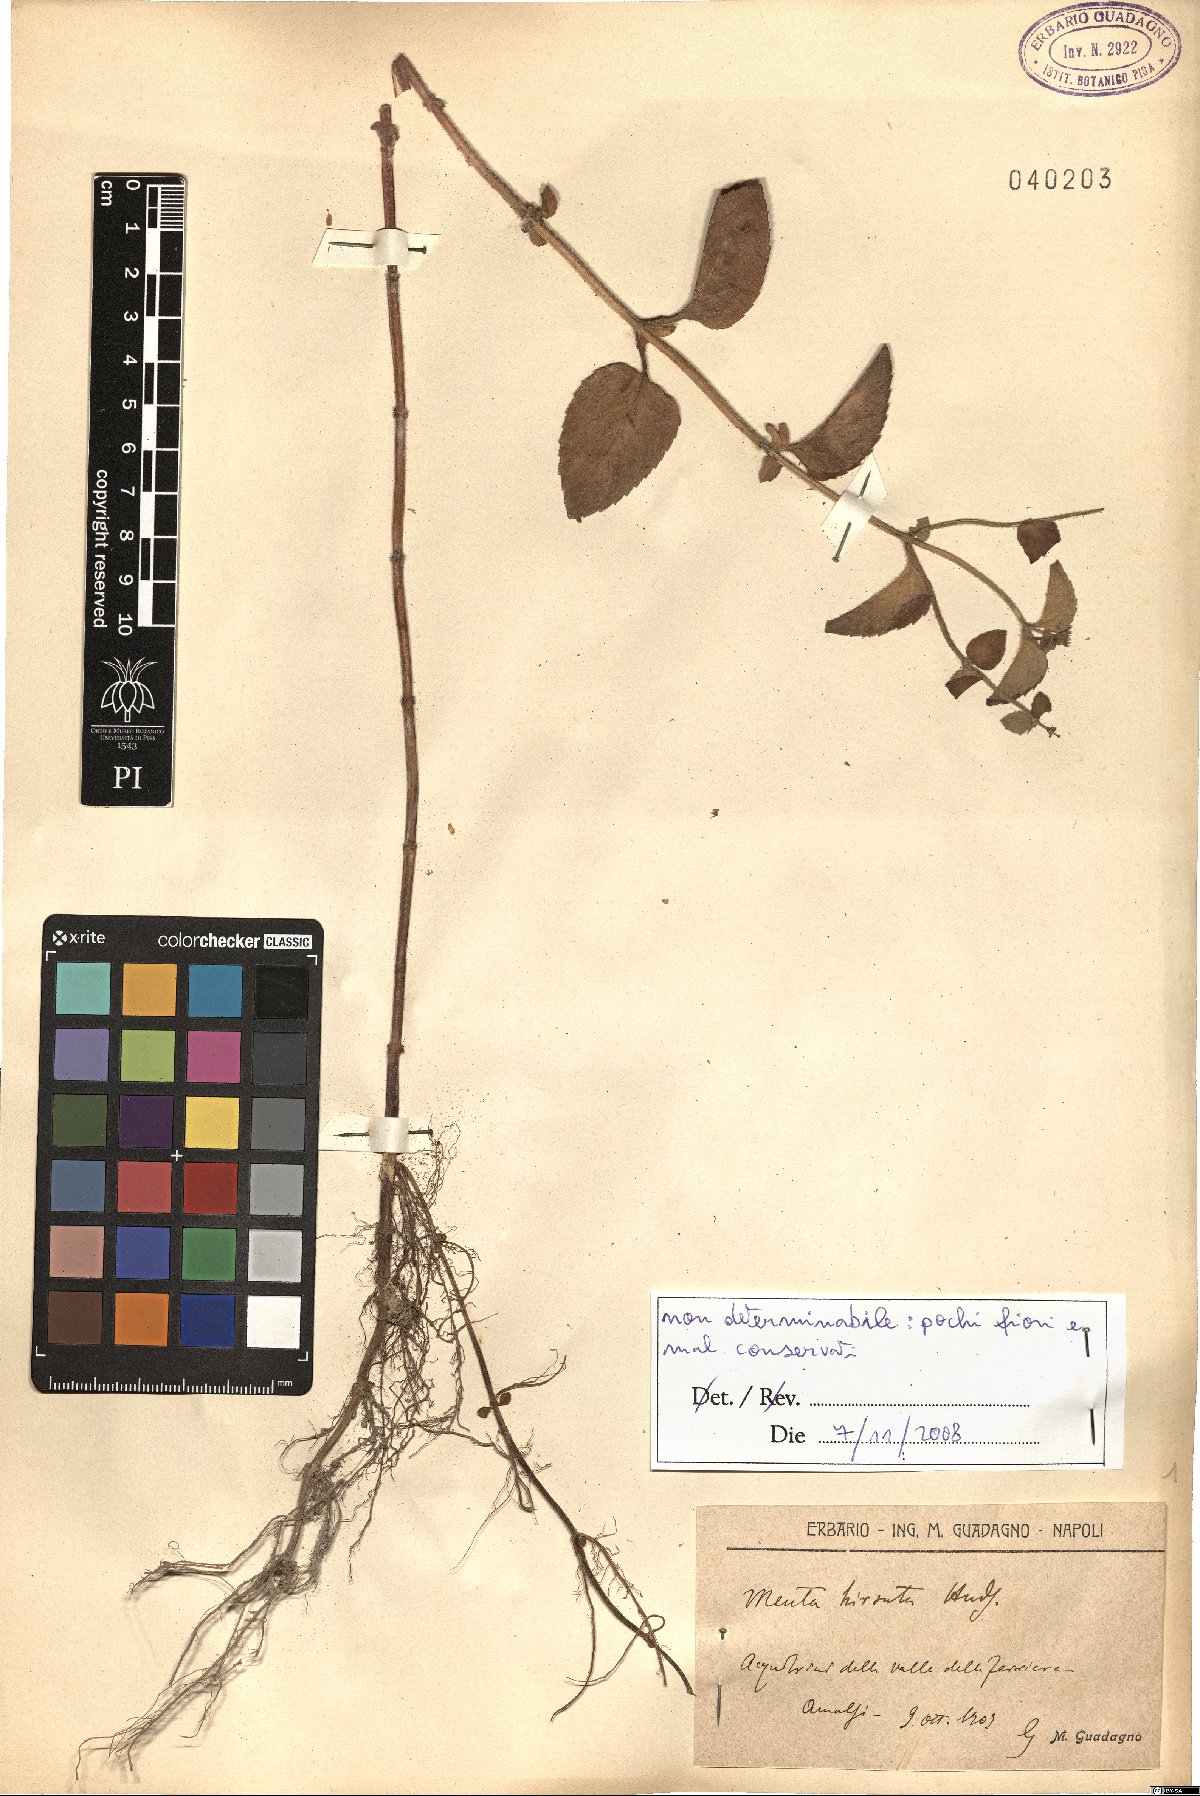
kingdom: Plantae
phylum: Tracheophyta
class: Magnoliopsida
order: Lamiales
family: Lamiaceae
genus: Mentha
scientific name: Mentha aquatica
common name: Water mint
